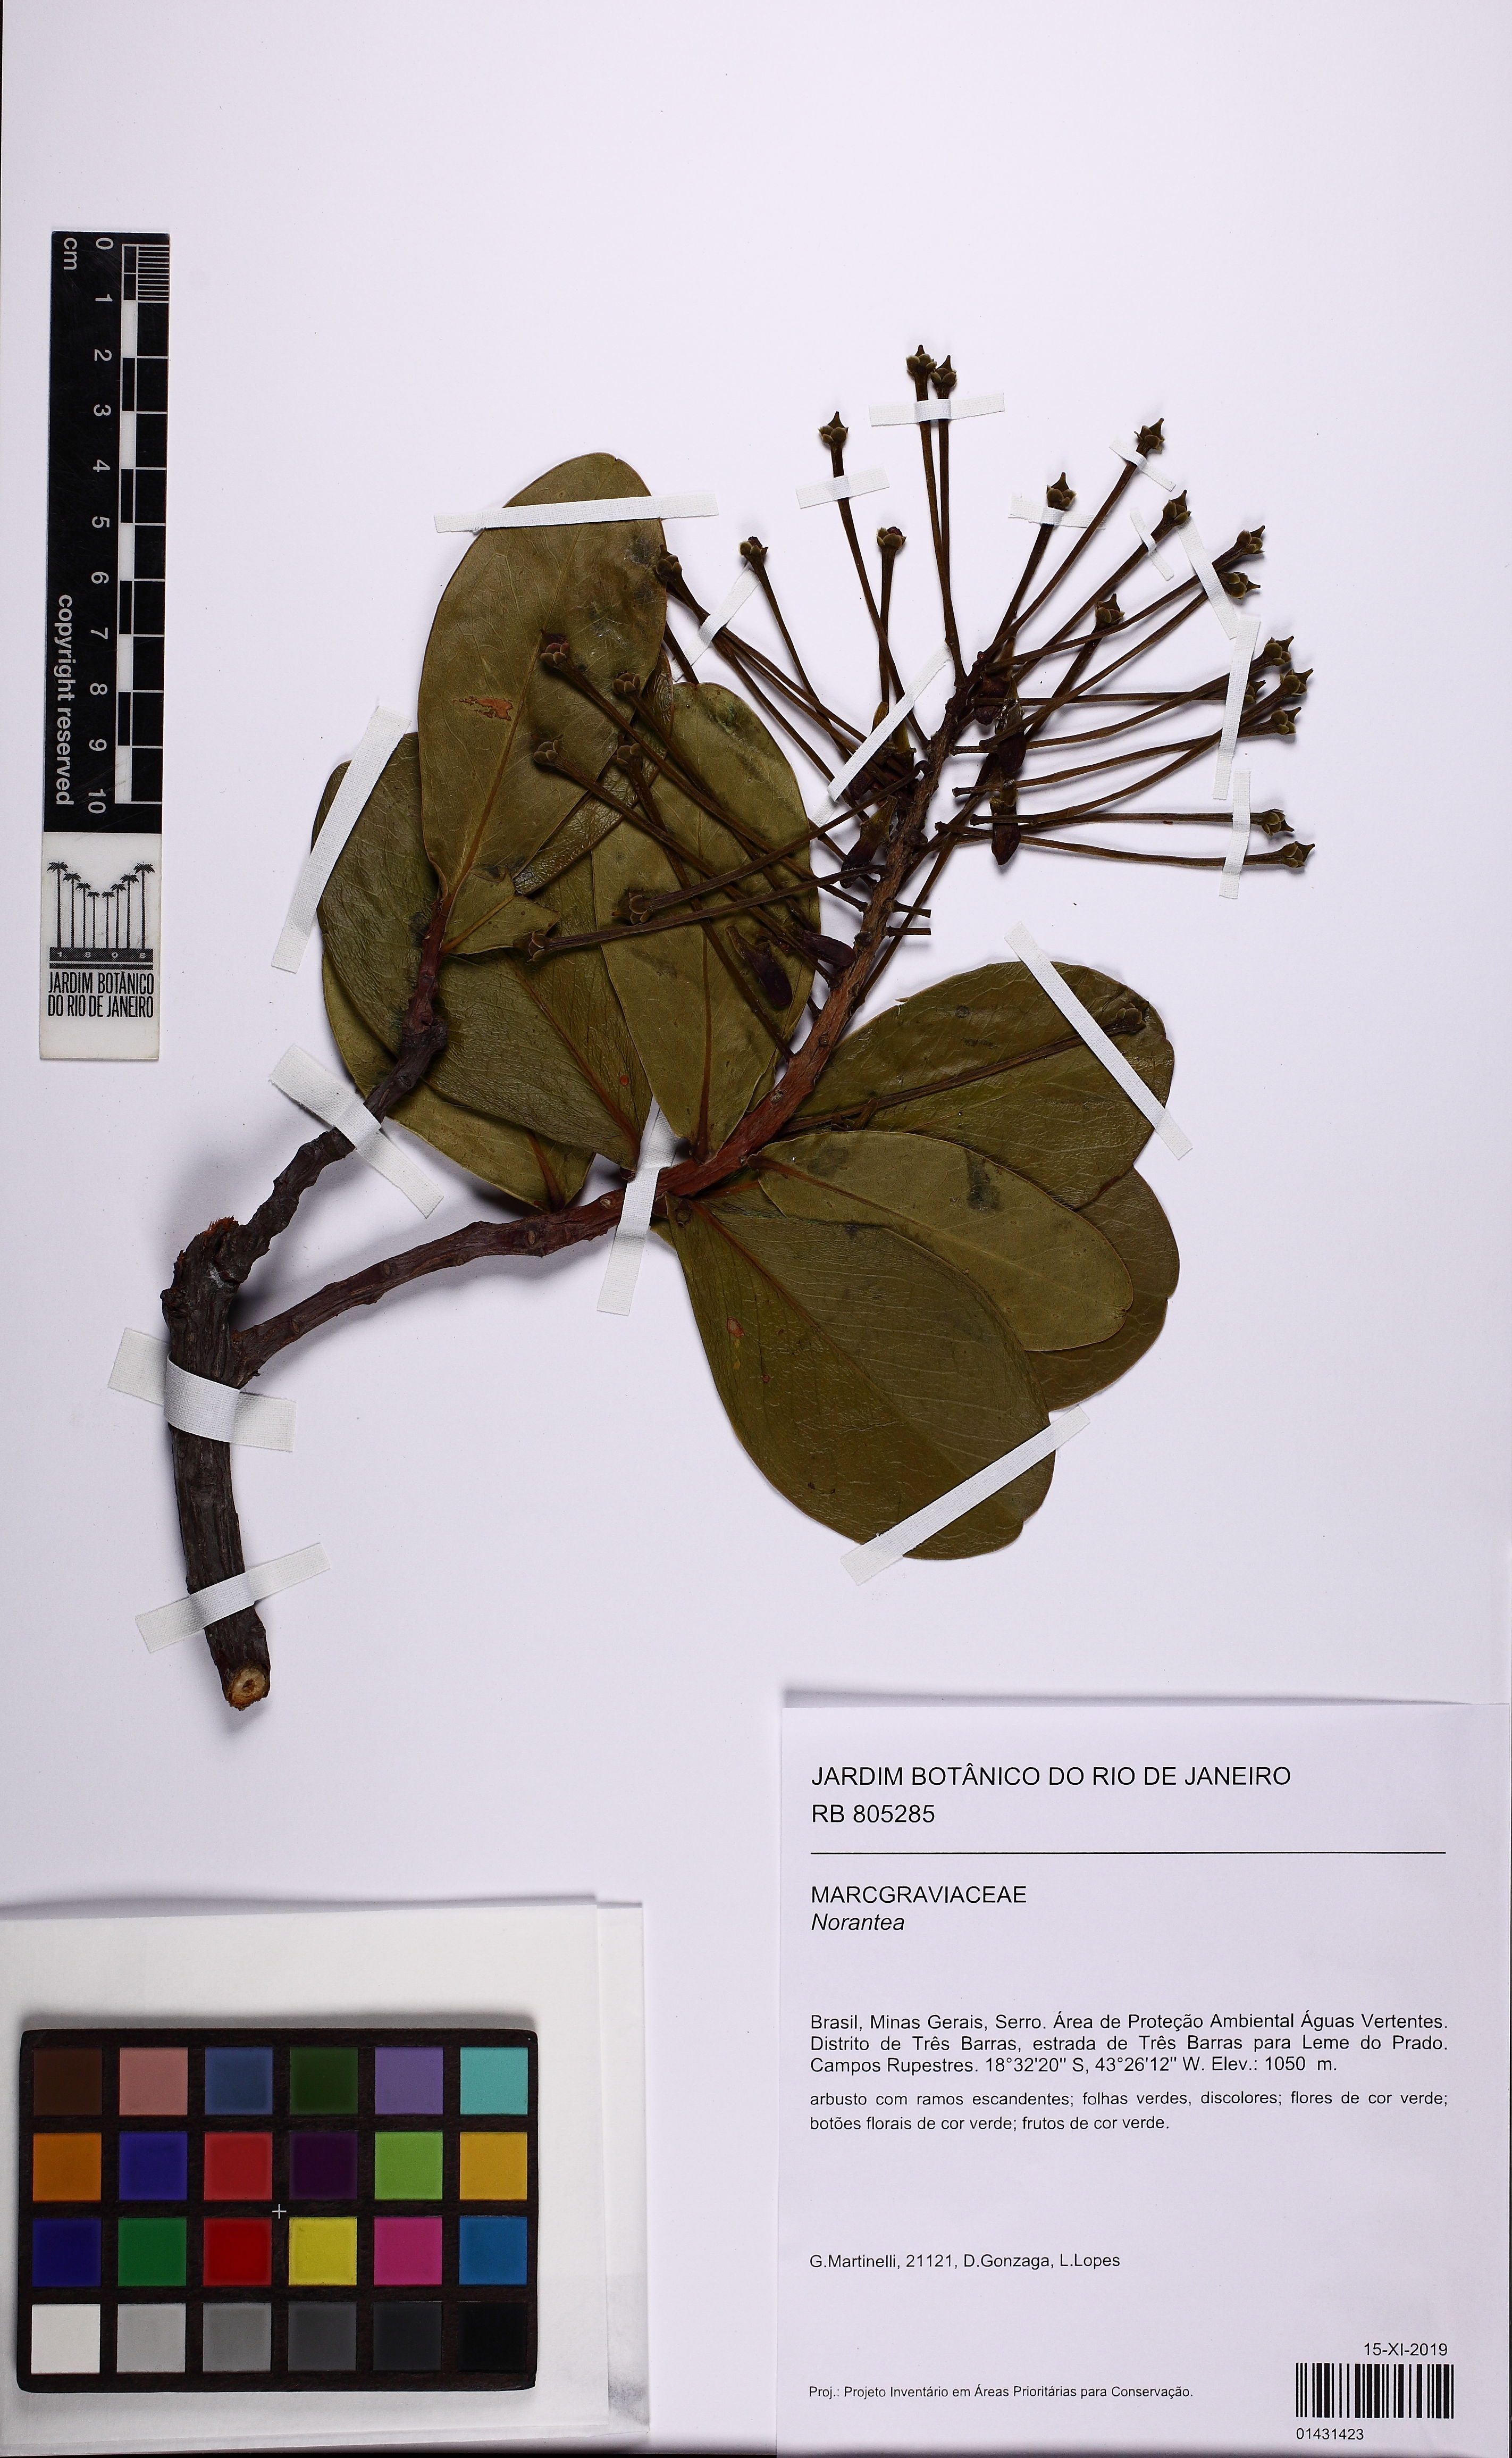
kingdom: Plantae
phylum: Tracheophyta
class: Magnoliopsida
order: Ericales
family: Marcgraviaceae
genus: Norantea
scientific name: Norantea
